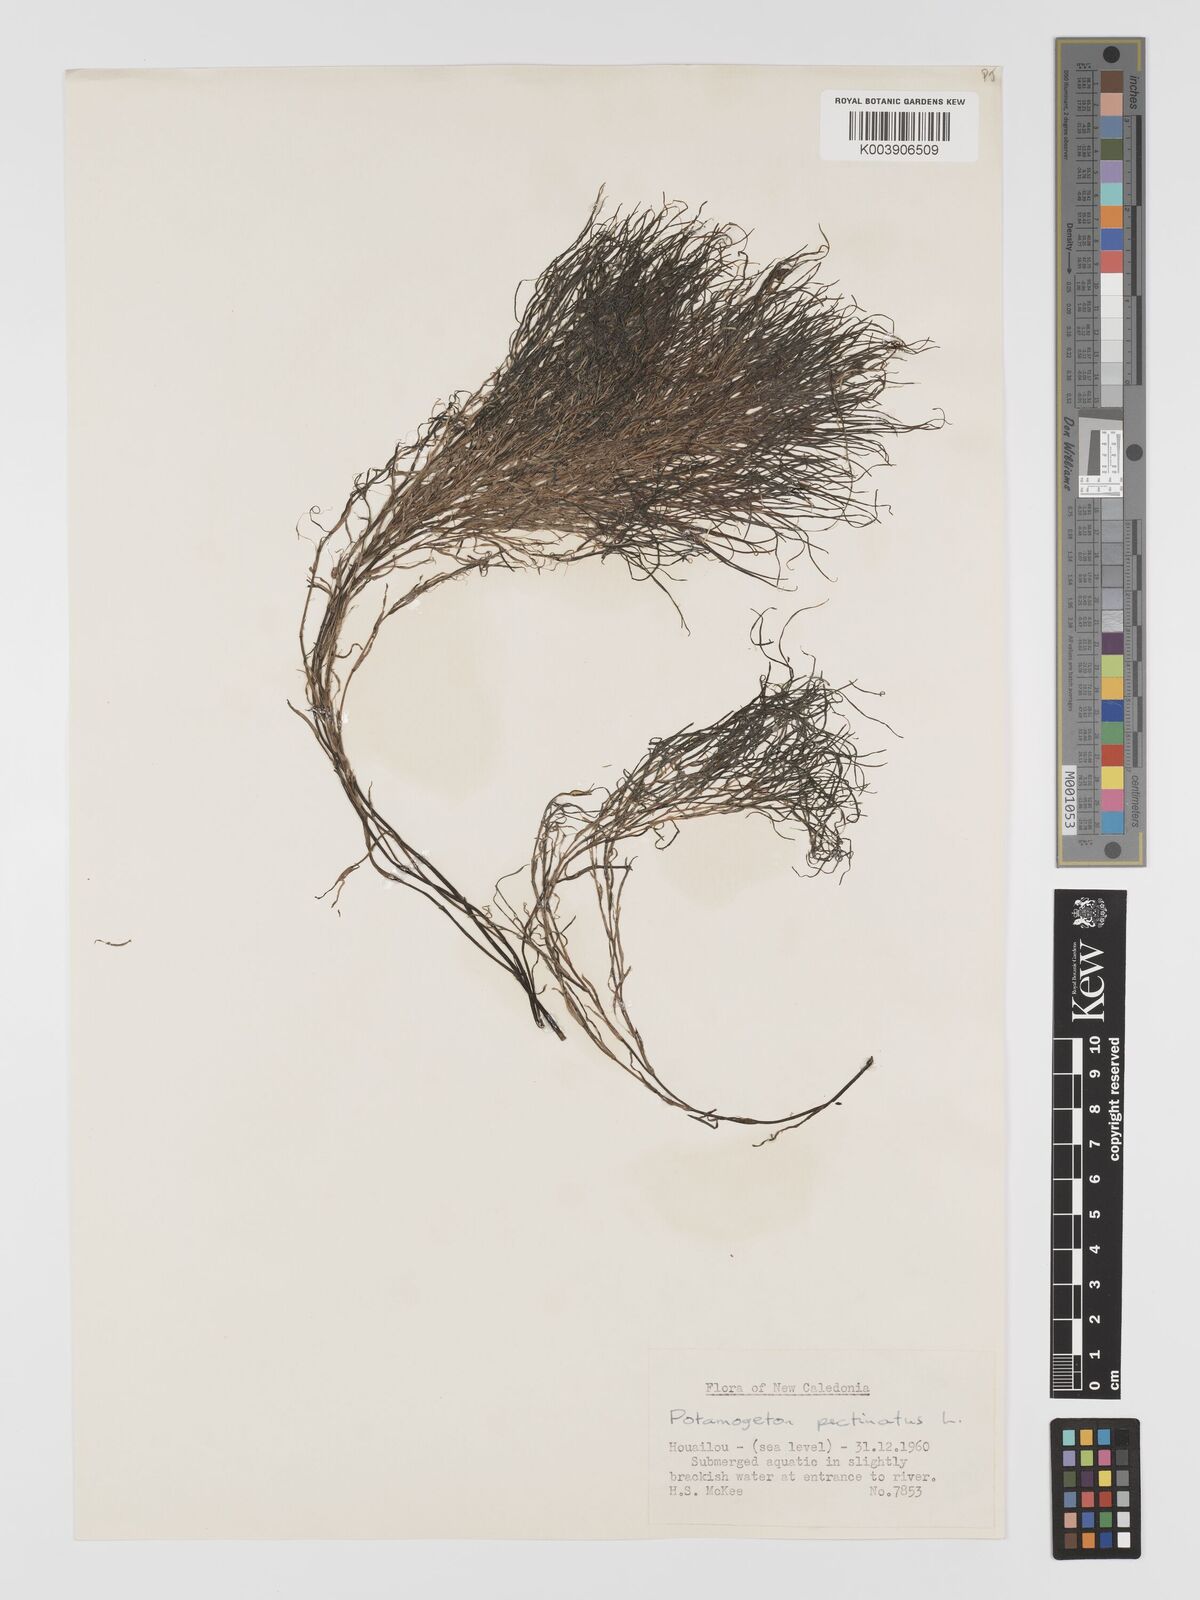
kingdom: Plantae
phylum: Tracheophyta
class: Liliopsida
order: Alismatales
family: Potamogetonaceae
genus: Stuckenia
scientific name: Stuckenia pectinata
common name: Sago pondweed
